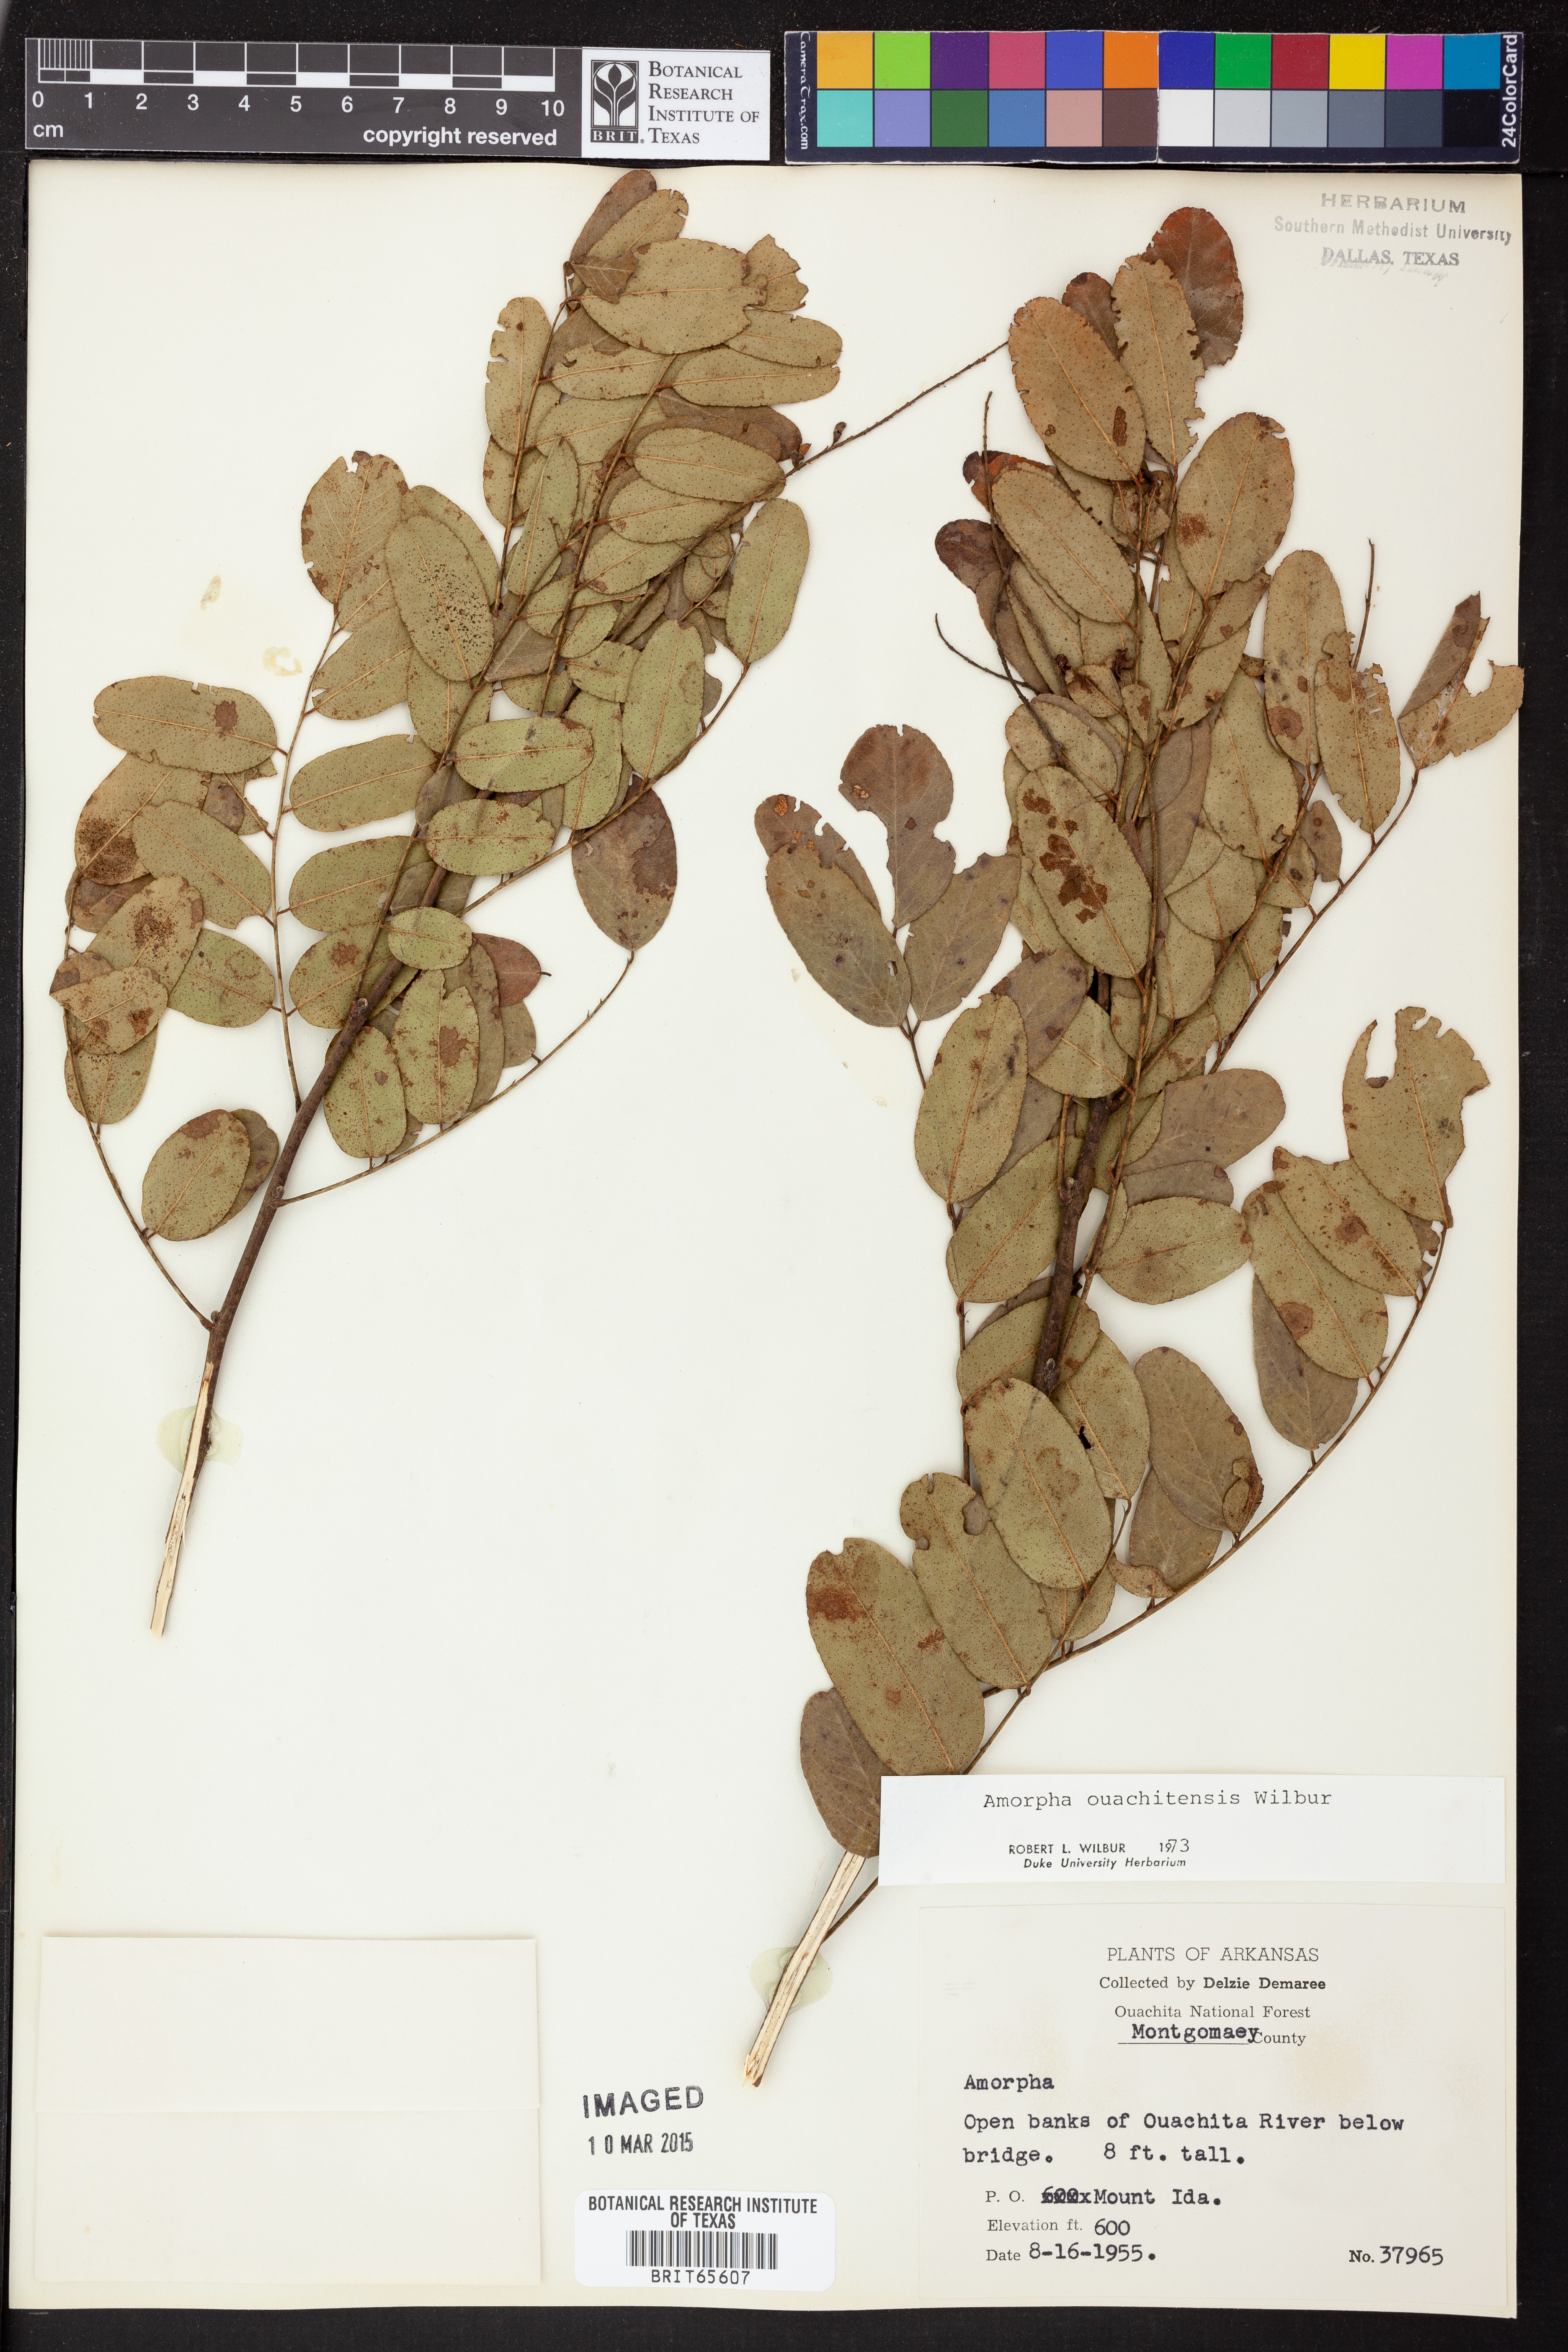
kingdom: Plantae
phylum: Tracheophyta
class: Magnoliopsida
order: Fabales
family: Fabaceae
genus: Amorpha
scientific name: Amorpha ouachitensis
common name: Ouachita false indigo
